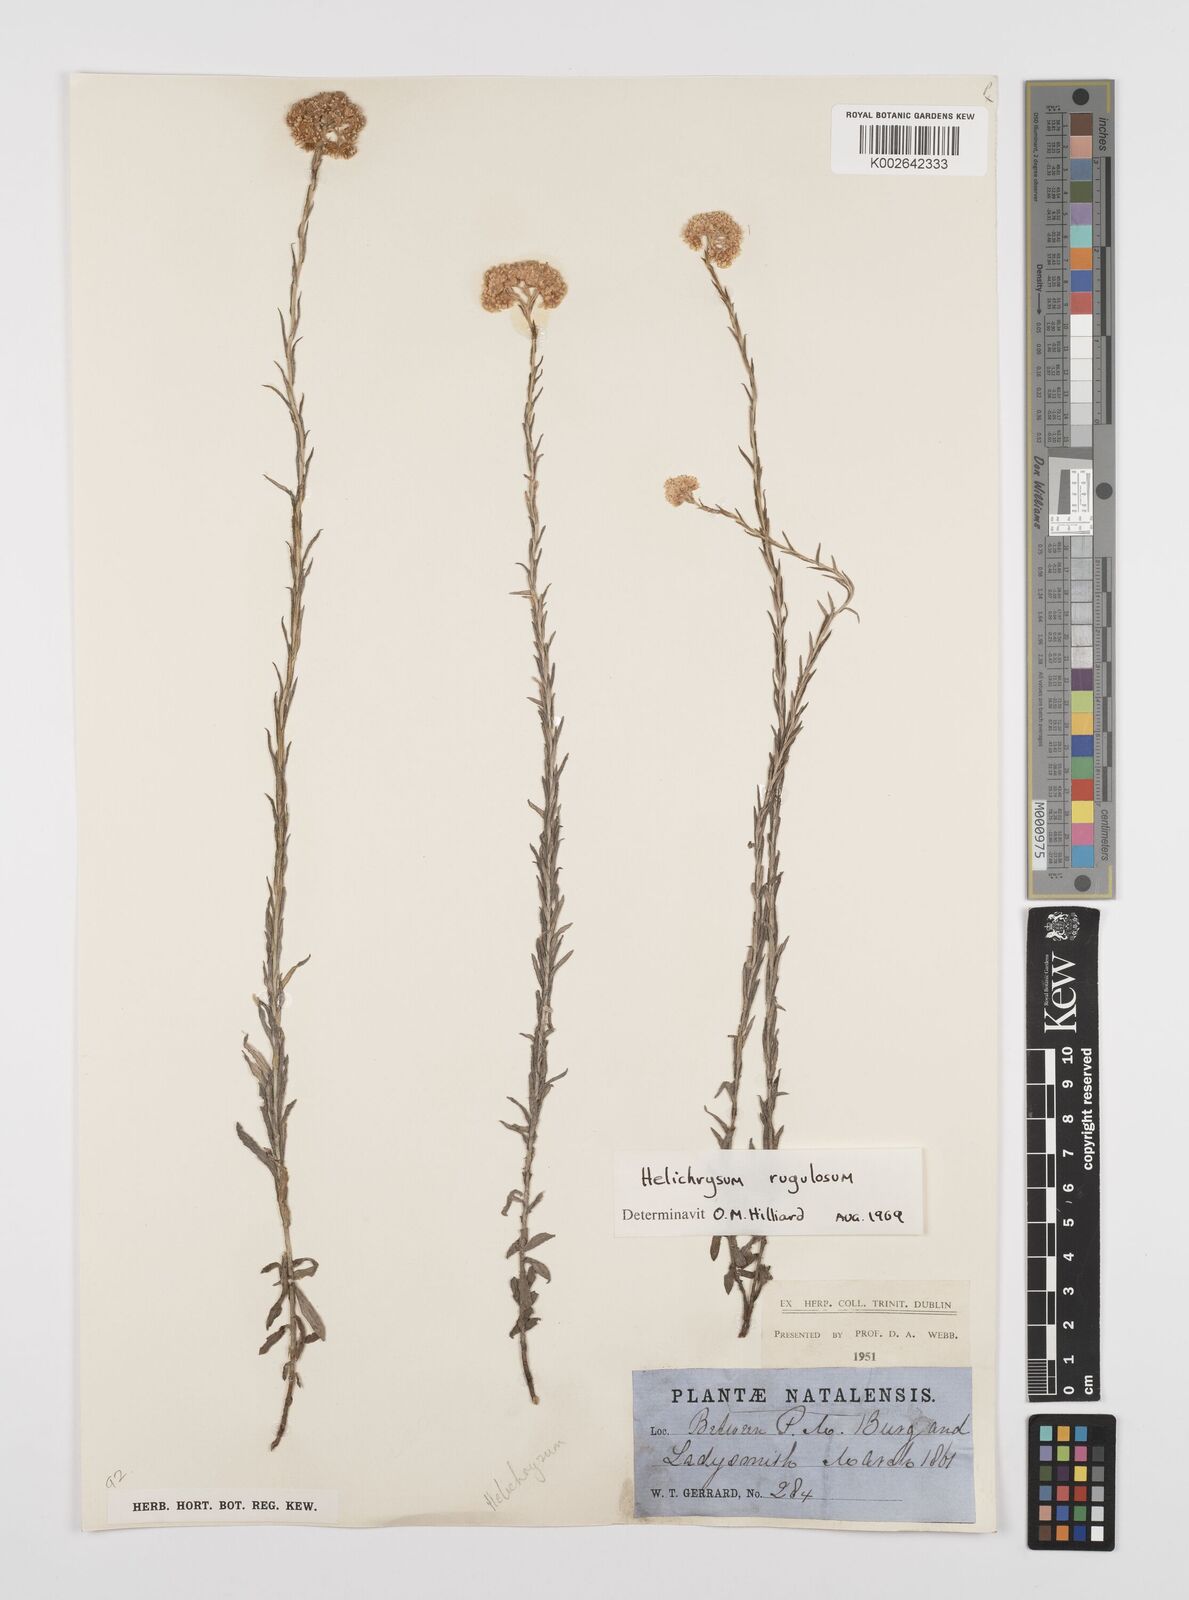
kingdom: Plantae
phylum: Tracheophyta
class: Magnoliopsida
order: Asterales
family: Asteraceae
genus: Helichrysum
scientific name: Helichrysum rugulosum
